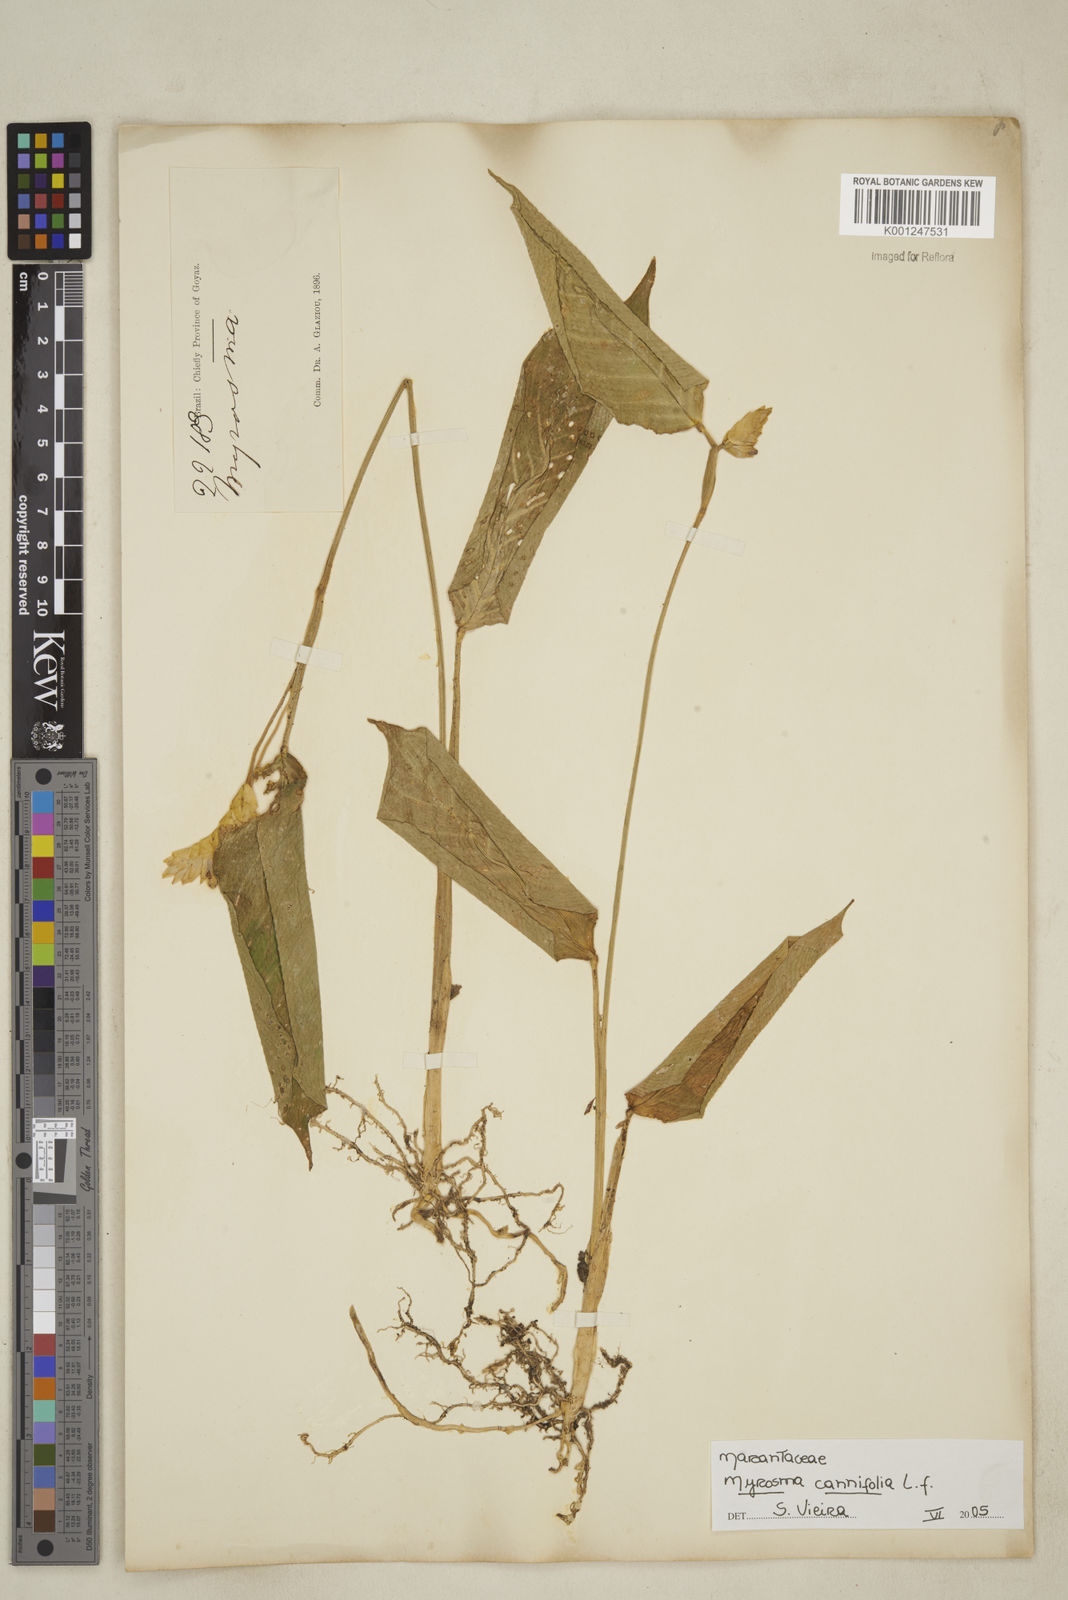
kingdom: Plantae
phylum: Tracheophyta
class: Liliopsida
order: Zingiberales
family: Marantaceae
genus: Myrosma
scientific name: Myrosma cannifolia
